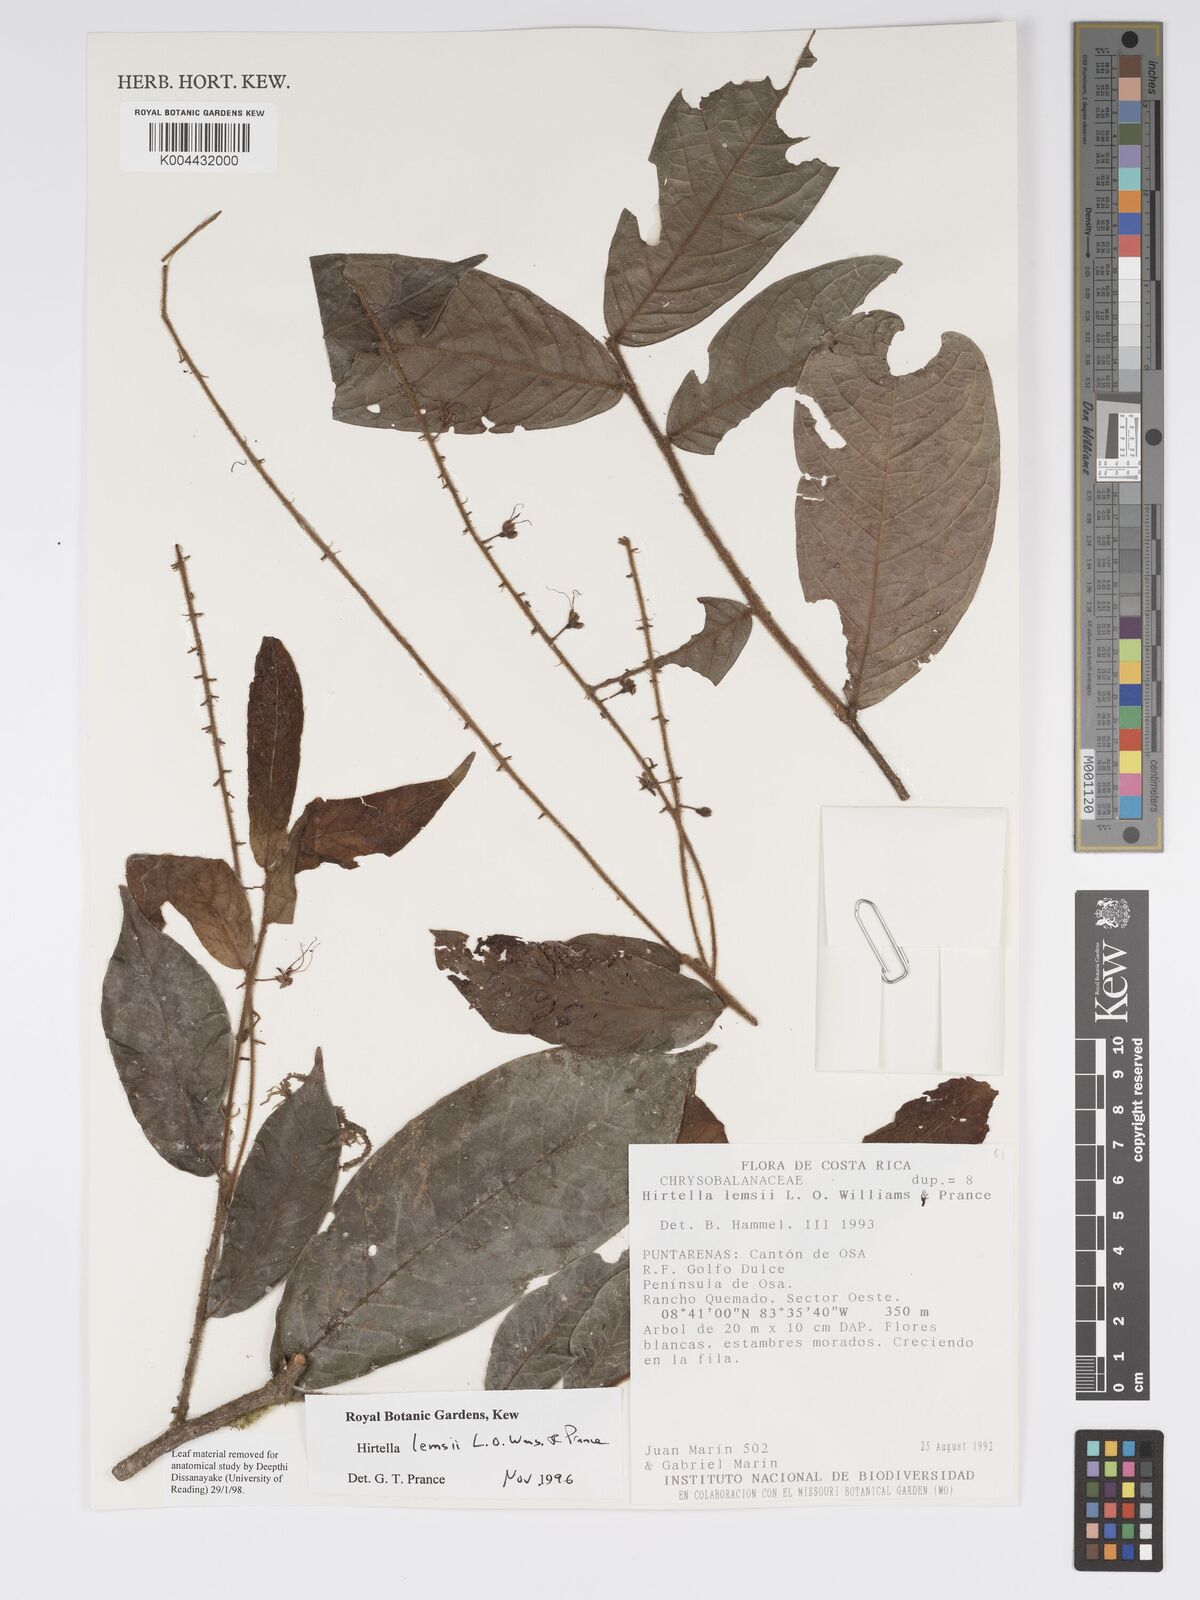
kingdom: Plantae
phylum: Tracheophyta
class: Magnoliopsida
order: Malpighiales
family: Chrysobalanaceae
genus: Hirtella
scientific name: Hirtella lemsii
